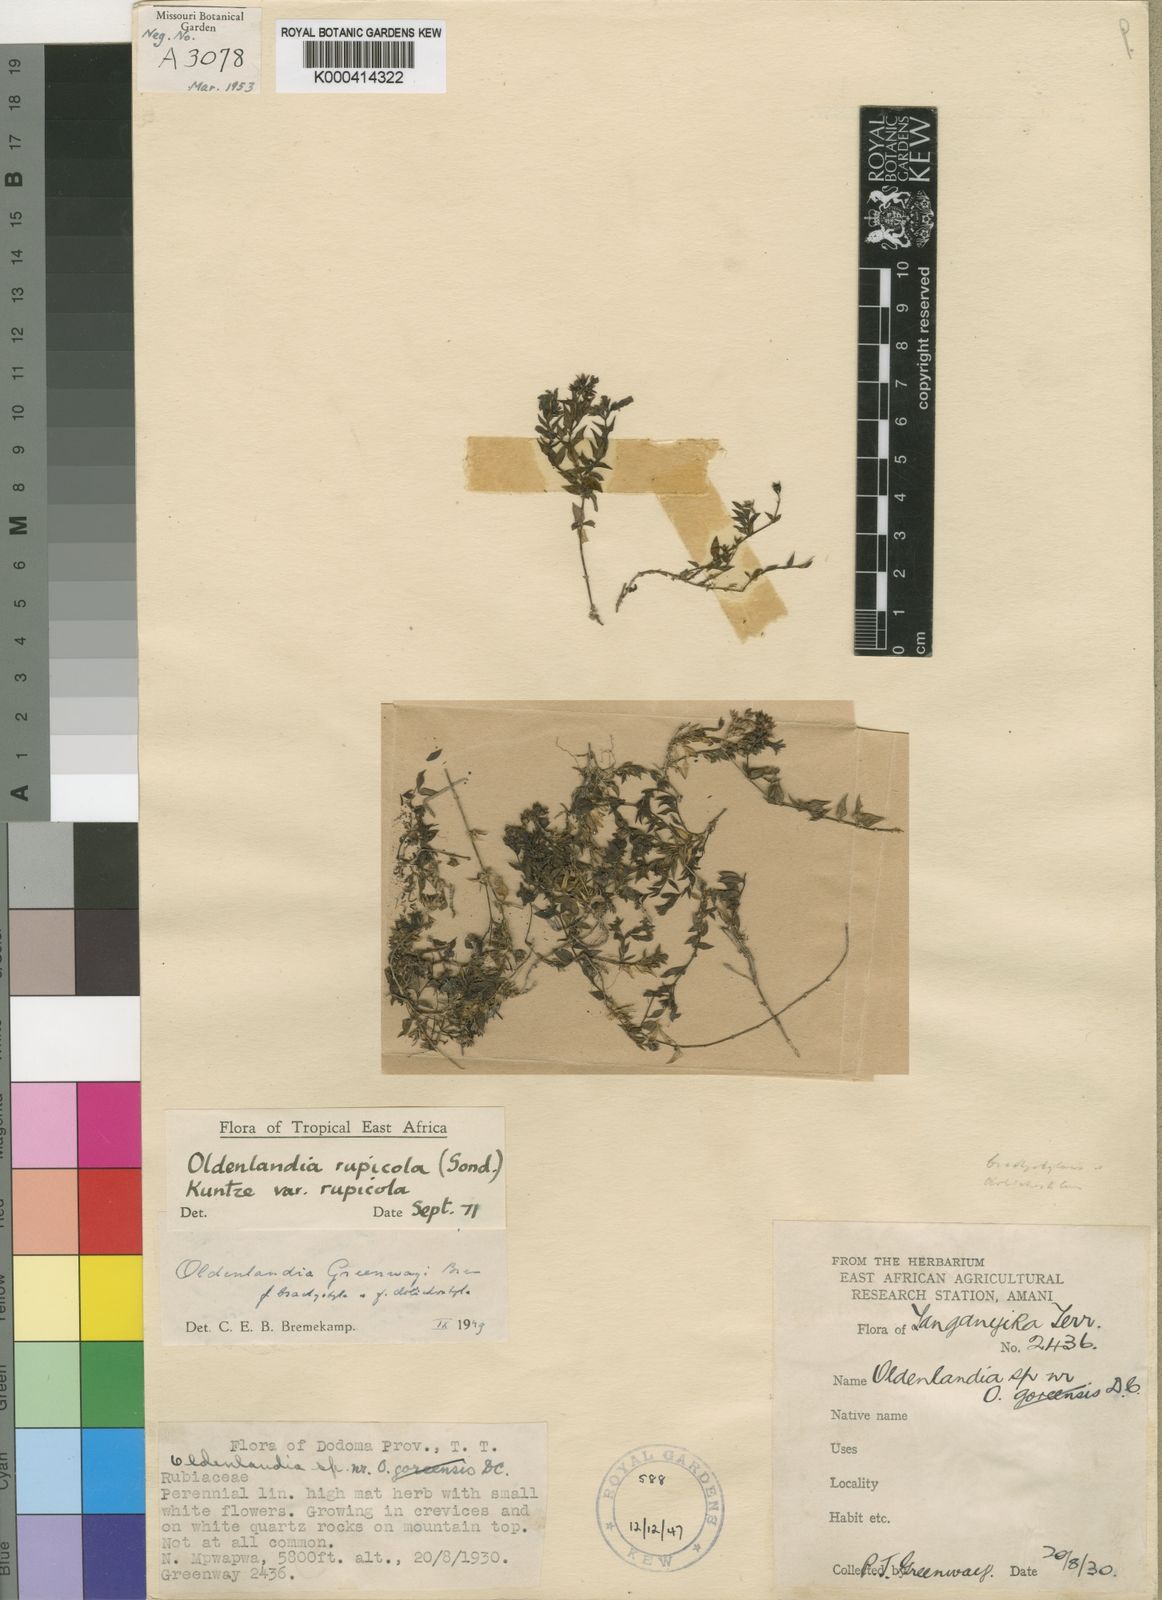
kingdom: Plantae
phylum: Tracheophyta
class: Magnoliopsida
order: Gentianales
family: Rubiaceae
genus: Oldenlandia
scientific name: Oldenlandia rupicola
